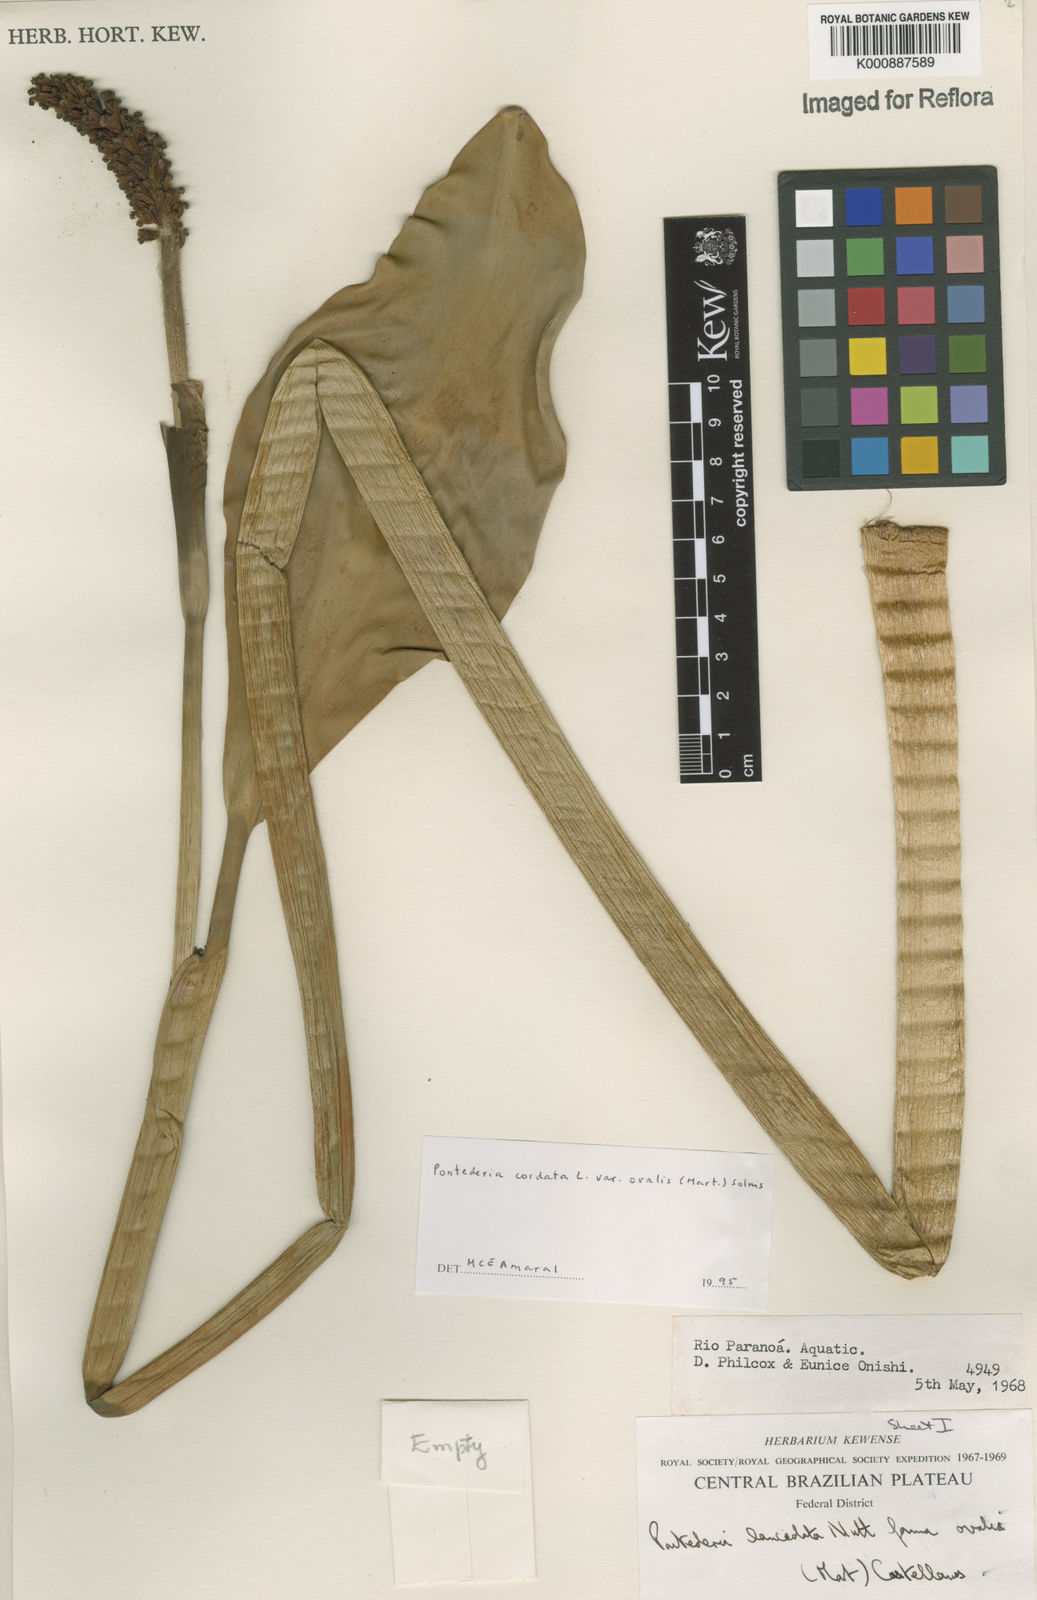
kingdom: Plantae
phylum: Tracheophyta
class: Liliopsida
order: Commelinales
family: Pontederiaceae
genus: Pontederia
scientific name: Pontederia cordata
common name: Pickerelweed
